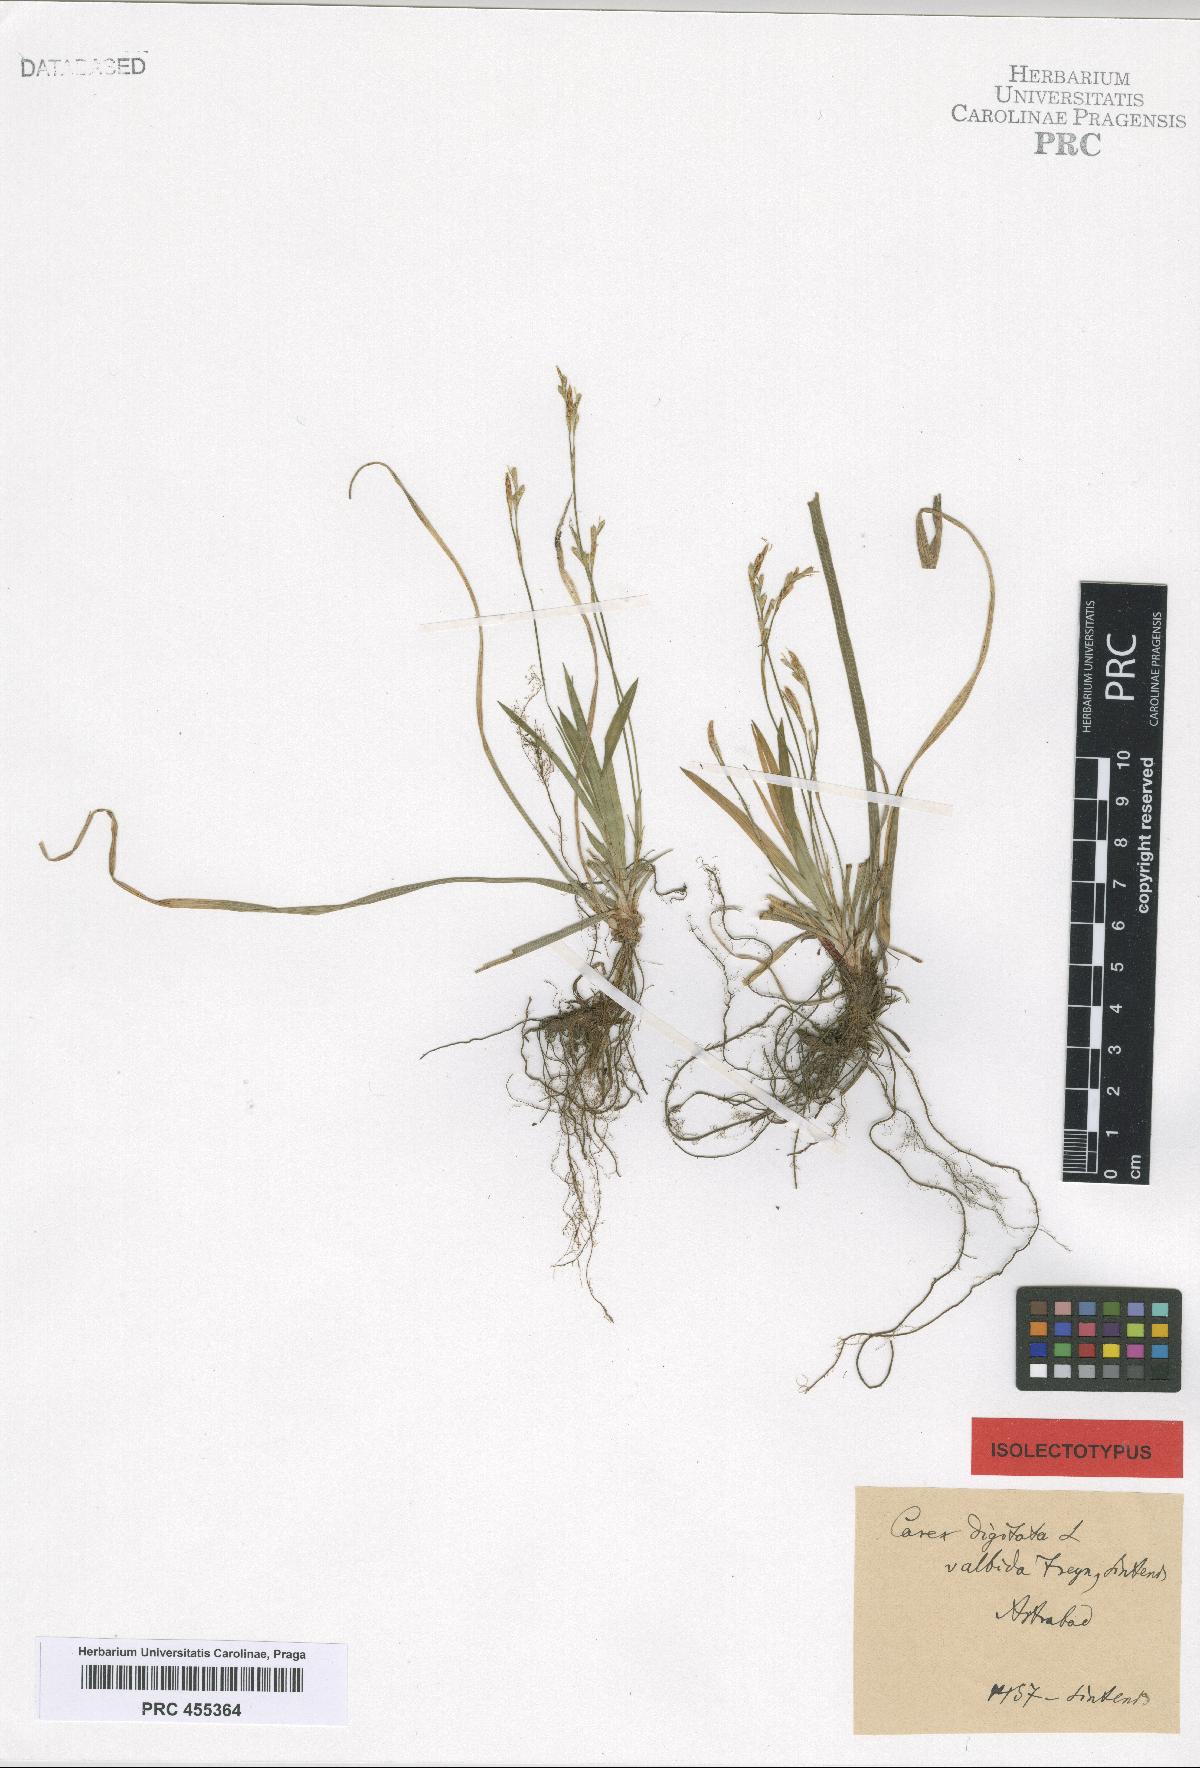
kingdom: Plantae
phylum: Tracheophyta
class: Liliopsida
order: Poales
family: Cyperaceae
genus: Carex
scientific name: Carex digitata
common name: Fingered sedge
